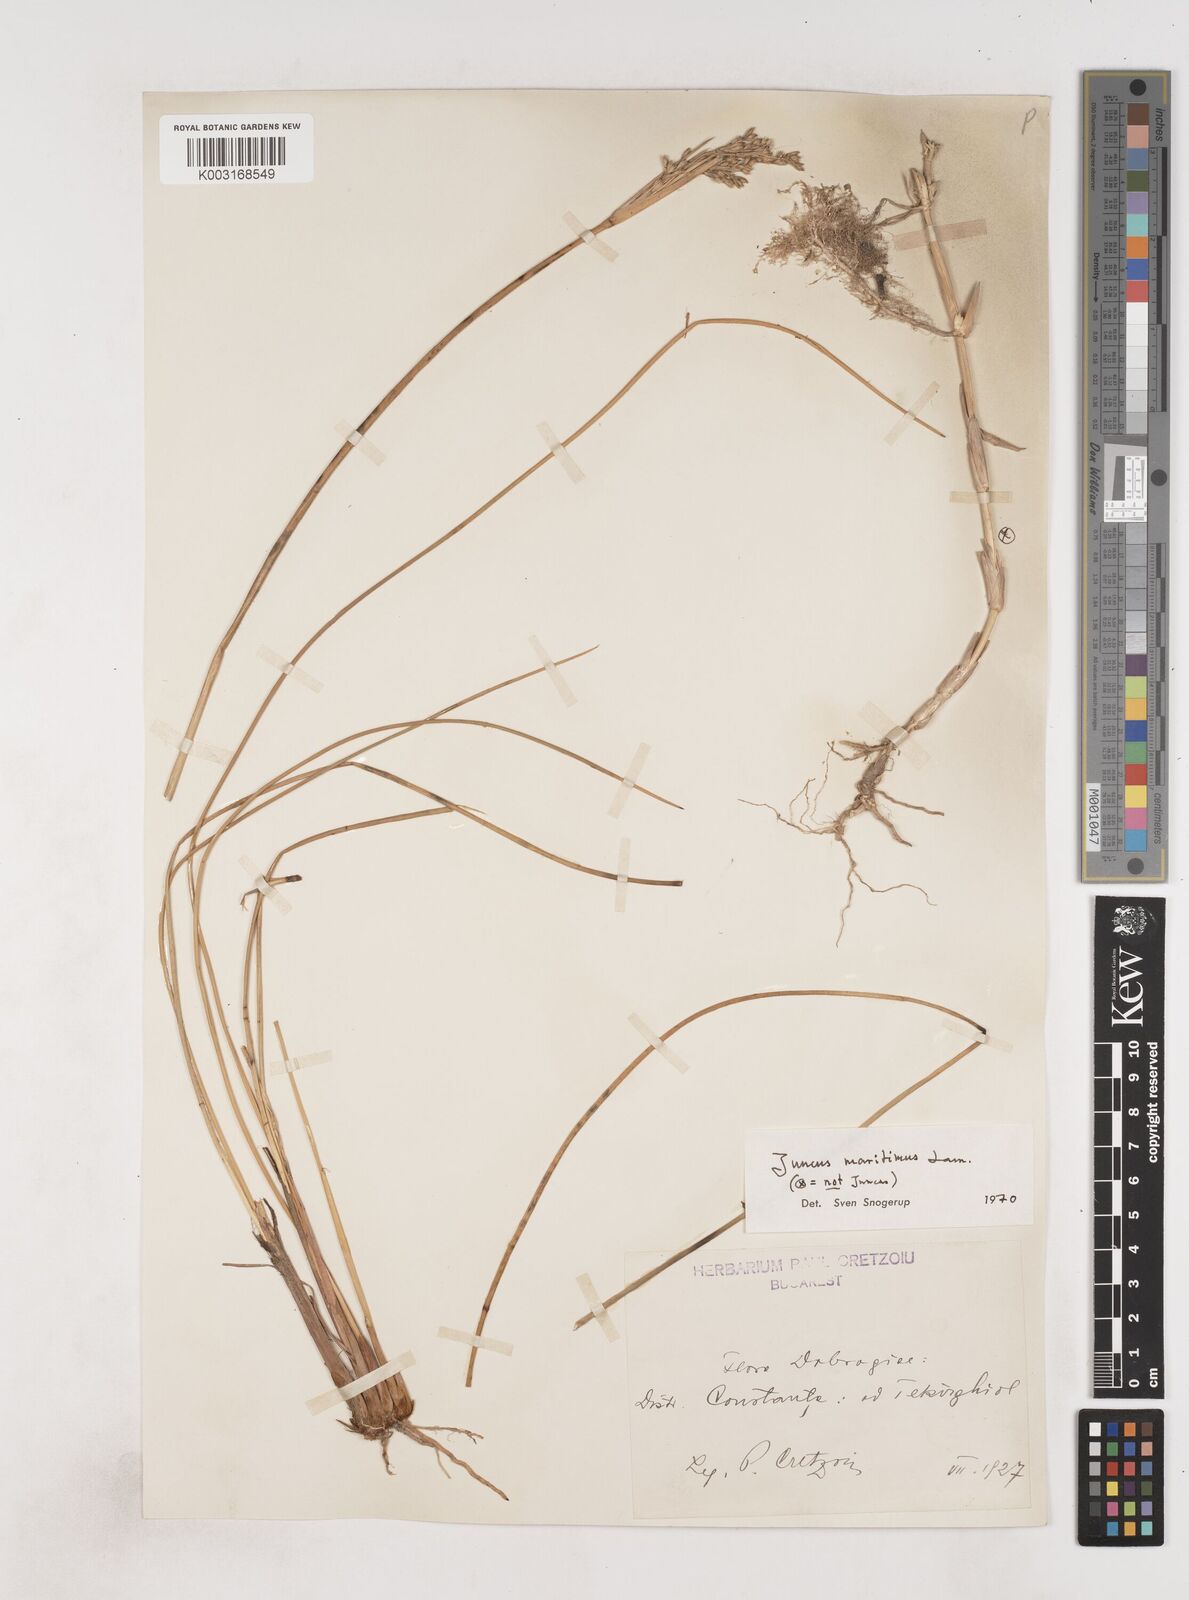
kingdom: Plantae
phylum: Tracheophyta
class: Liliopsida
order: Poales
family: Juncaceae
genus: Juncus
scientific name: Juncus maritimus
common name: Sea rush
